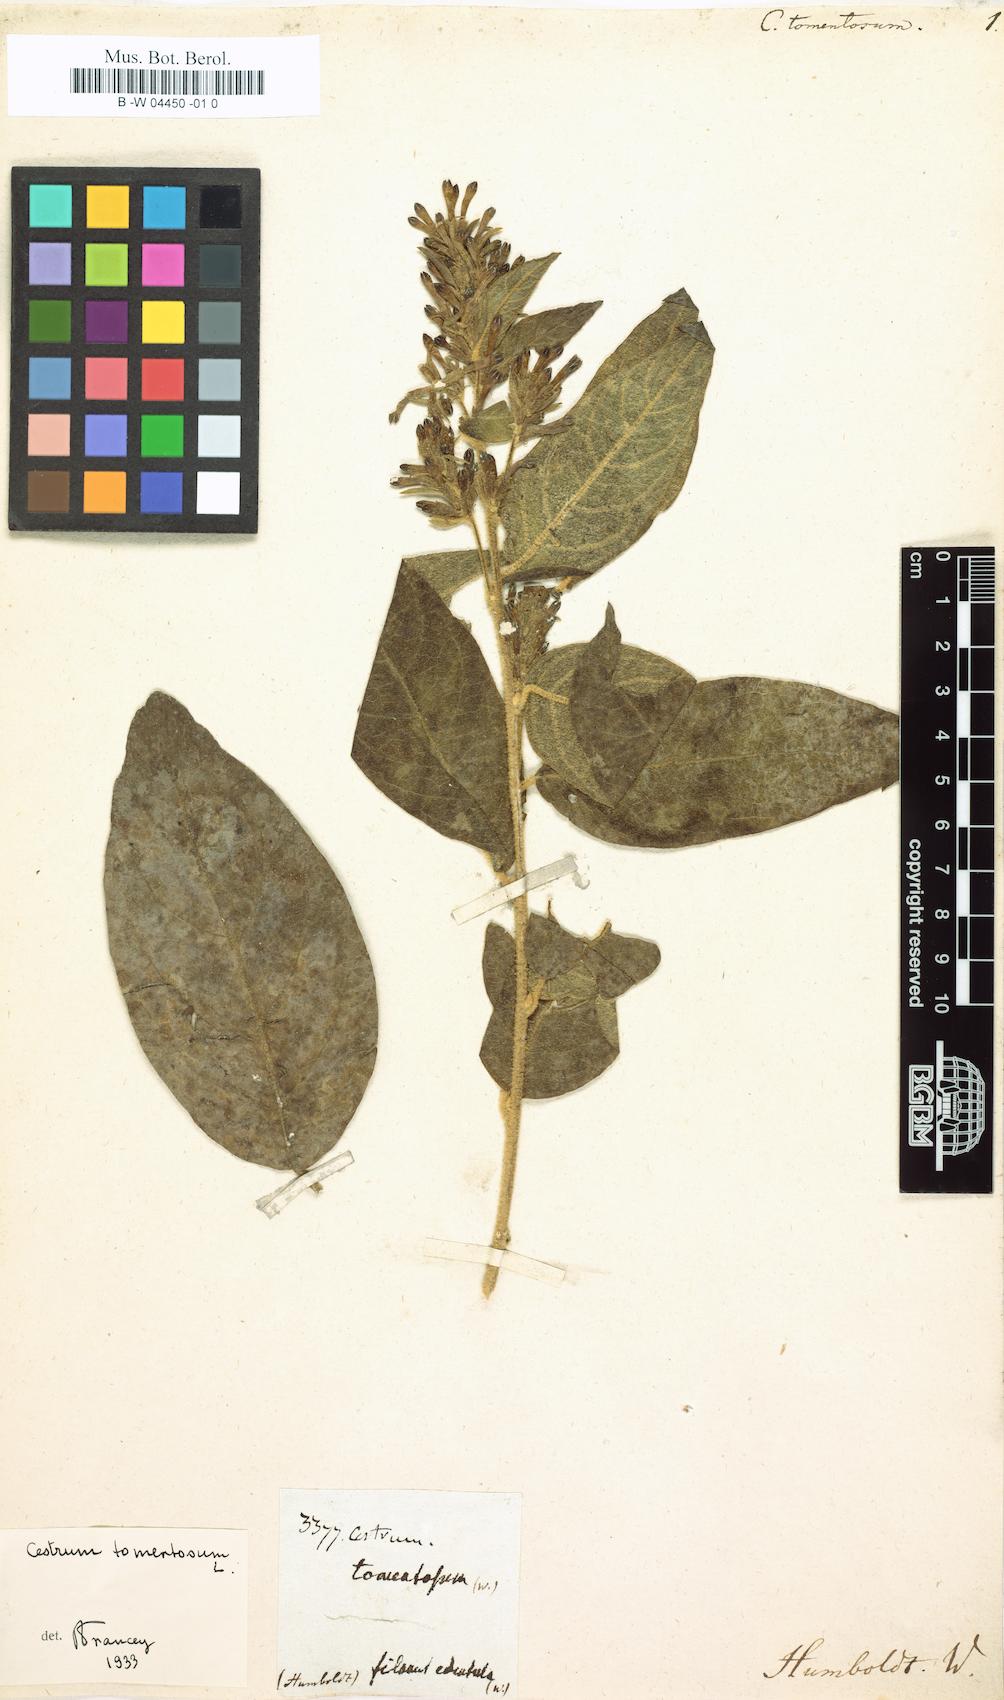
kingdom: Plantae
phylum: Tracheophyta
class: Magnoliopsida
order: Solanales
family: Solanaceae
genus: Cestrum
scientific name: Cestrum tomentosum
